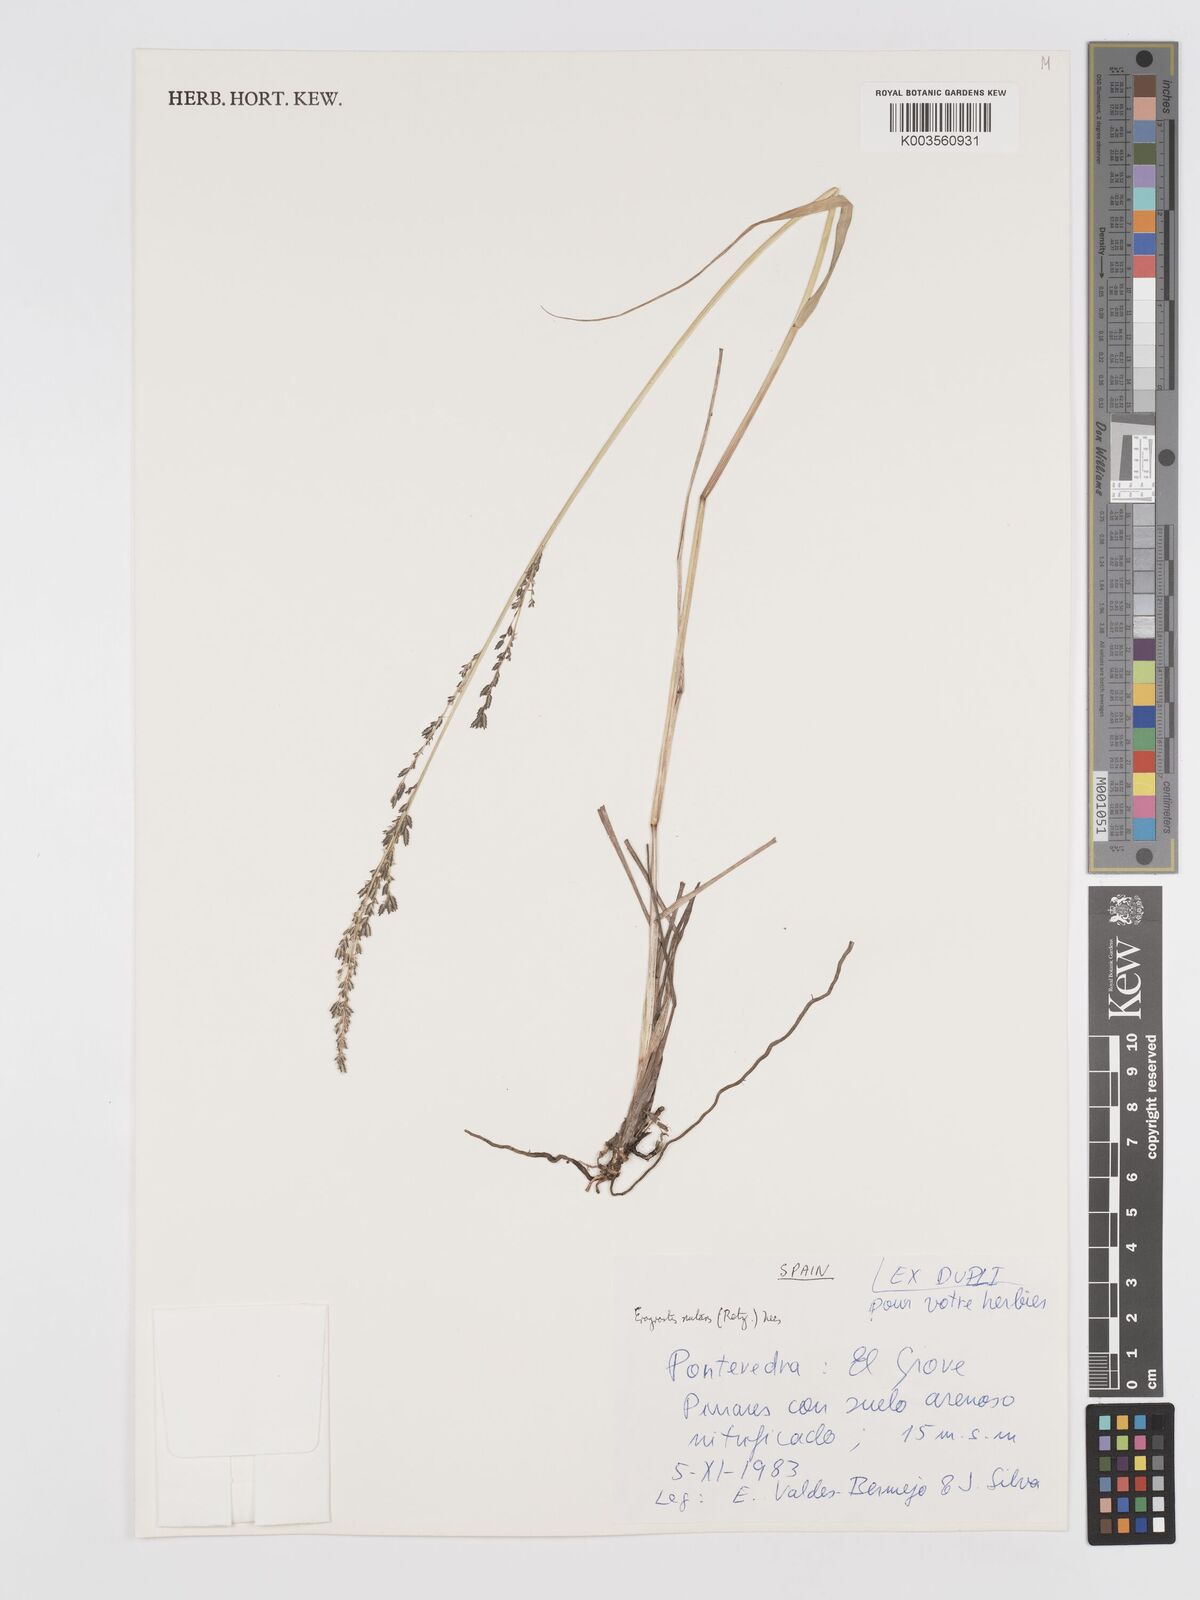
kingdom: Plantae
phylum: Tracheophyta
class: Liliopsida
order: Poales
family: Poaceae
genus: Eragrostis
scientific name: Eragrostis nutans
